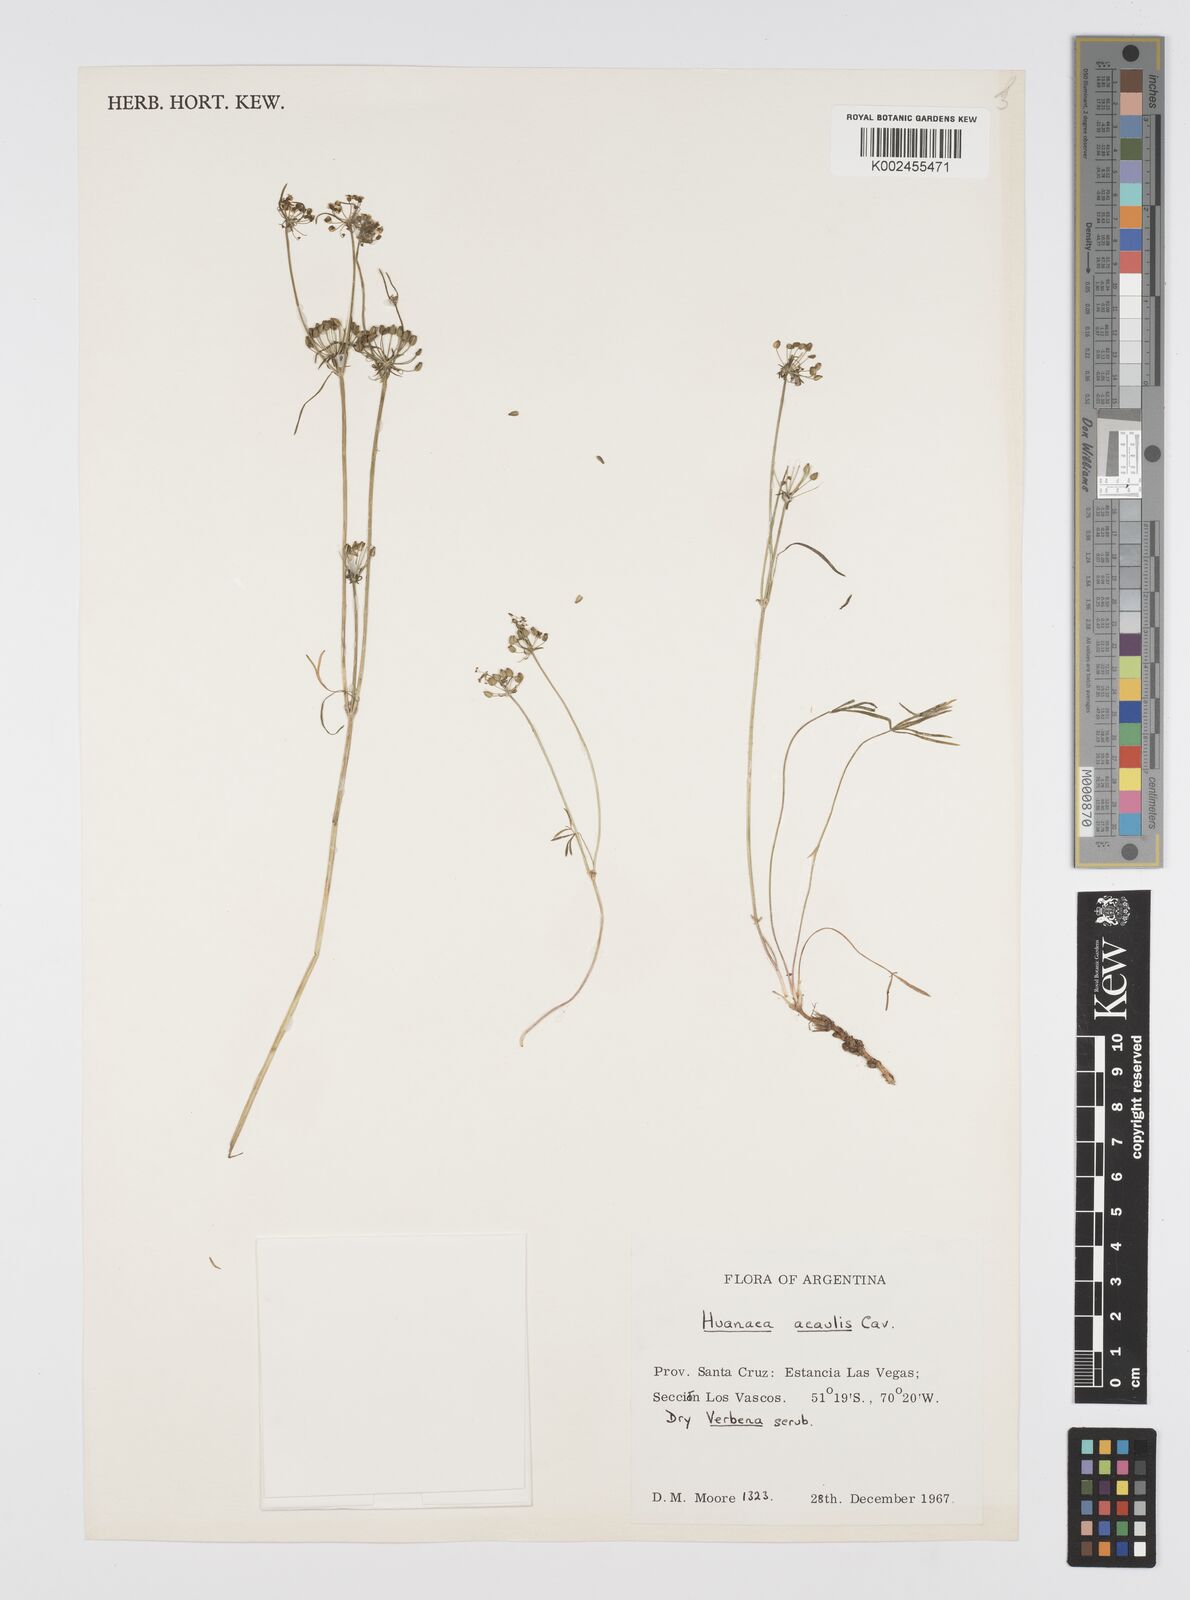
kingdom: Plantae
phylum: Tracheophyta
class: Magnoliopsida
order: Apiales
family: Apiaceae
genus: Azorella
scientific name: Azorella andina
